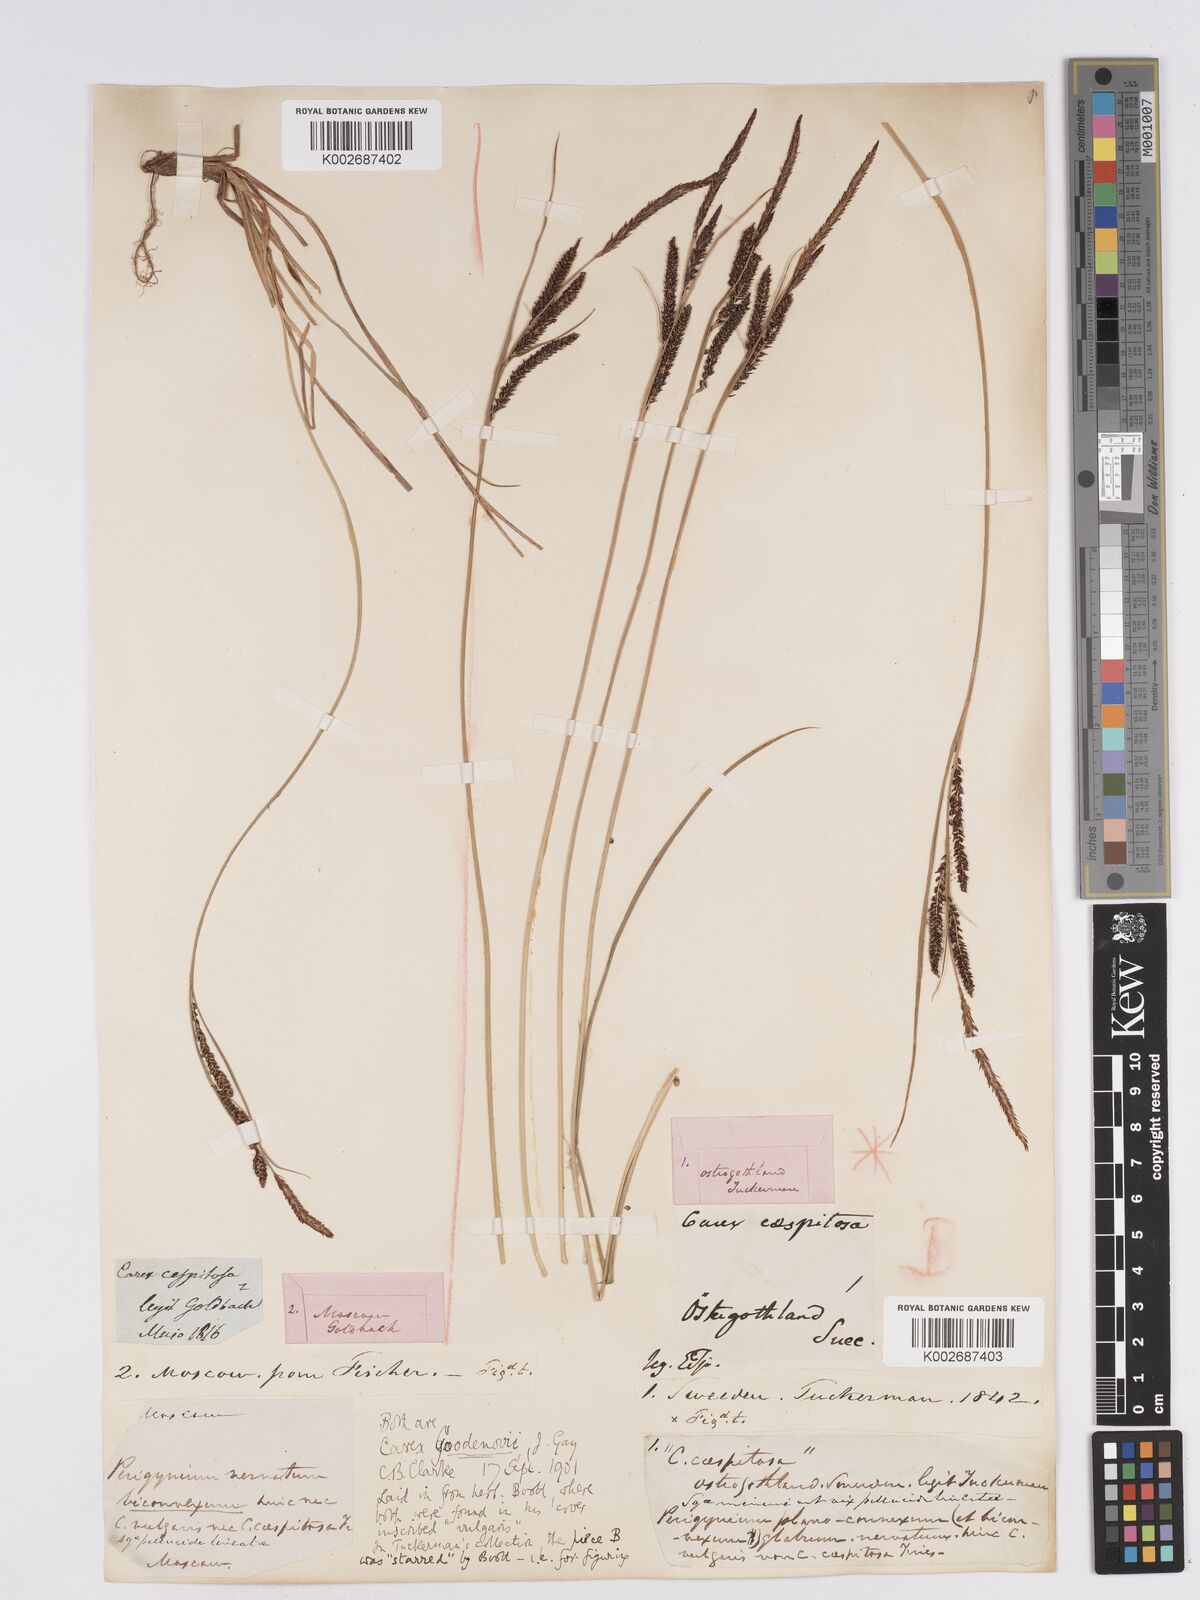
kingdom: Plantae
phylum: Tracheophyta
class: Liliopsida
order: Poales
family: Cyperaceae
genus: Carex
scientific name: Carex nigra
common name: Common sedge
